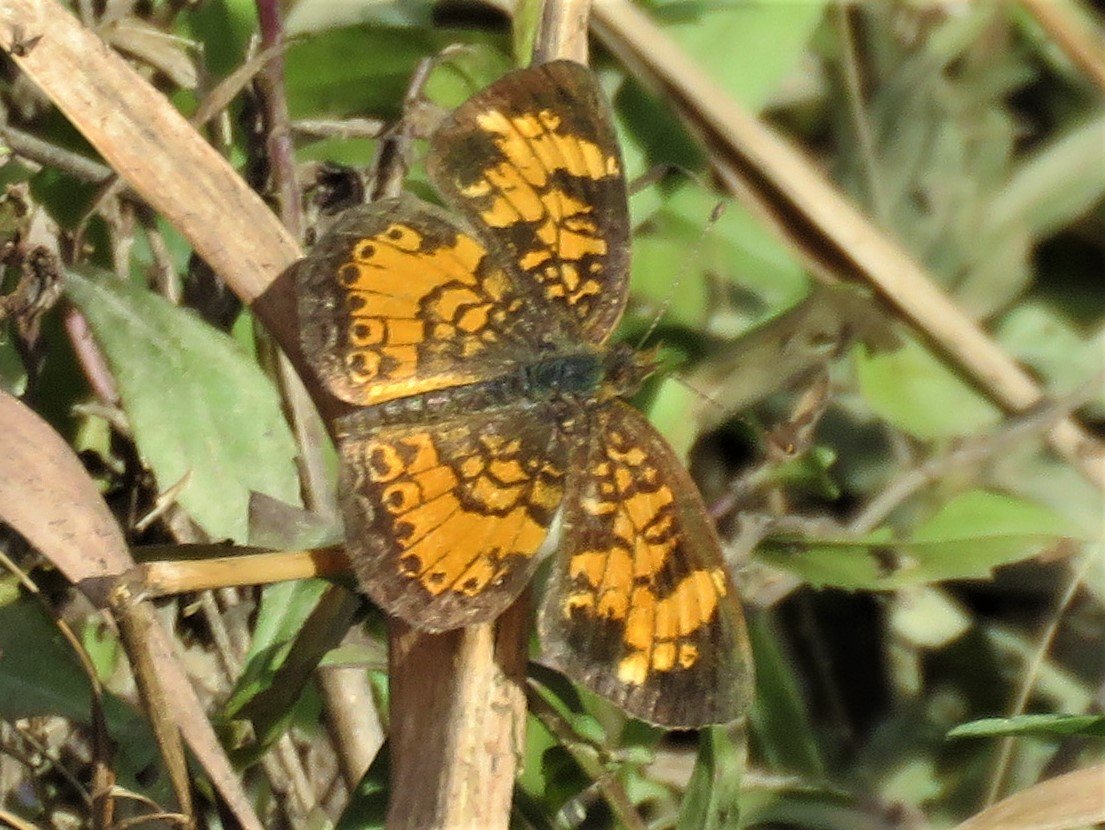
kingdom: Animalia
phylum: Arthropoda
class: Insecta
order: Lepidoptera
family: Nymphalidae
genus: Phyciodes
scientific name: Phyciodes tharos
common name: Pearl Crescent
